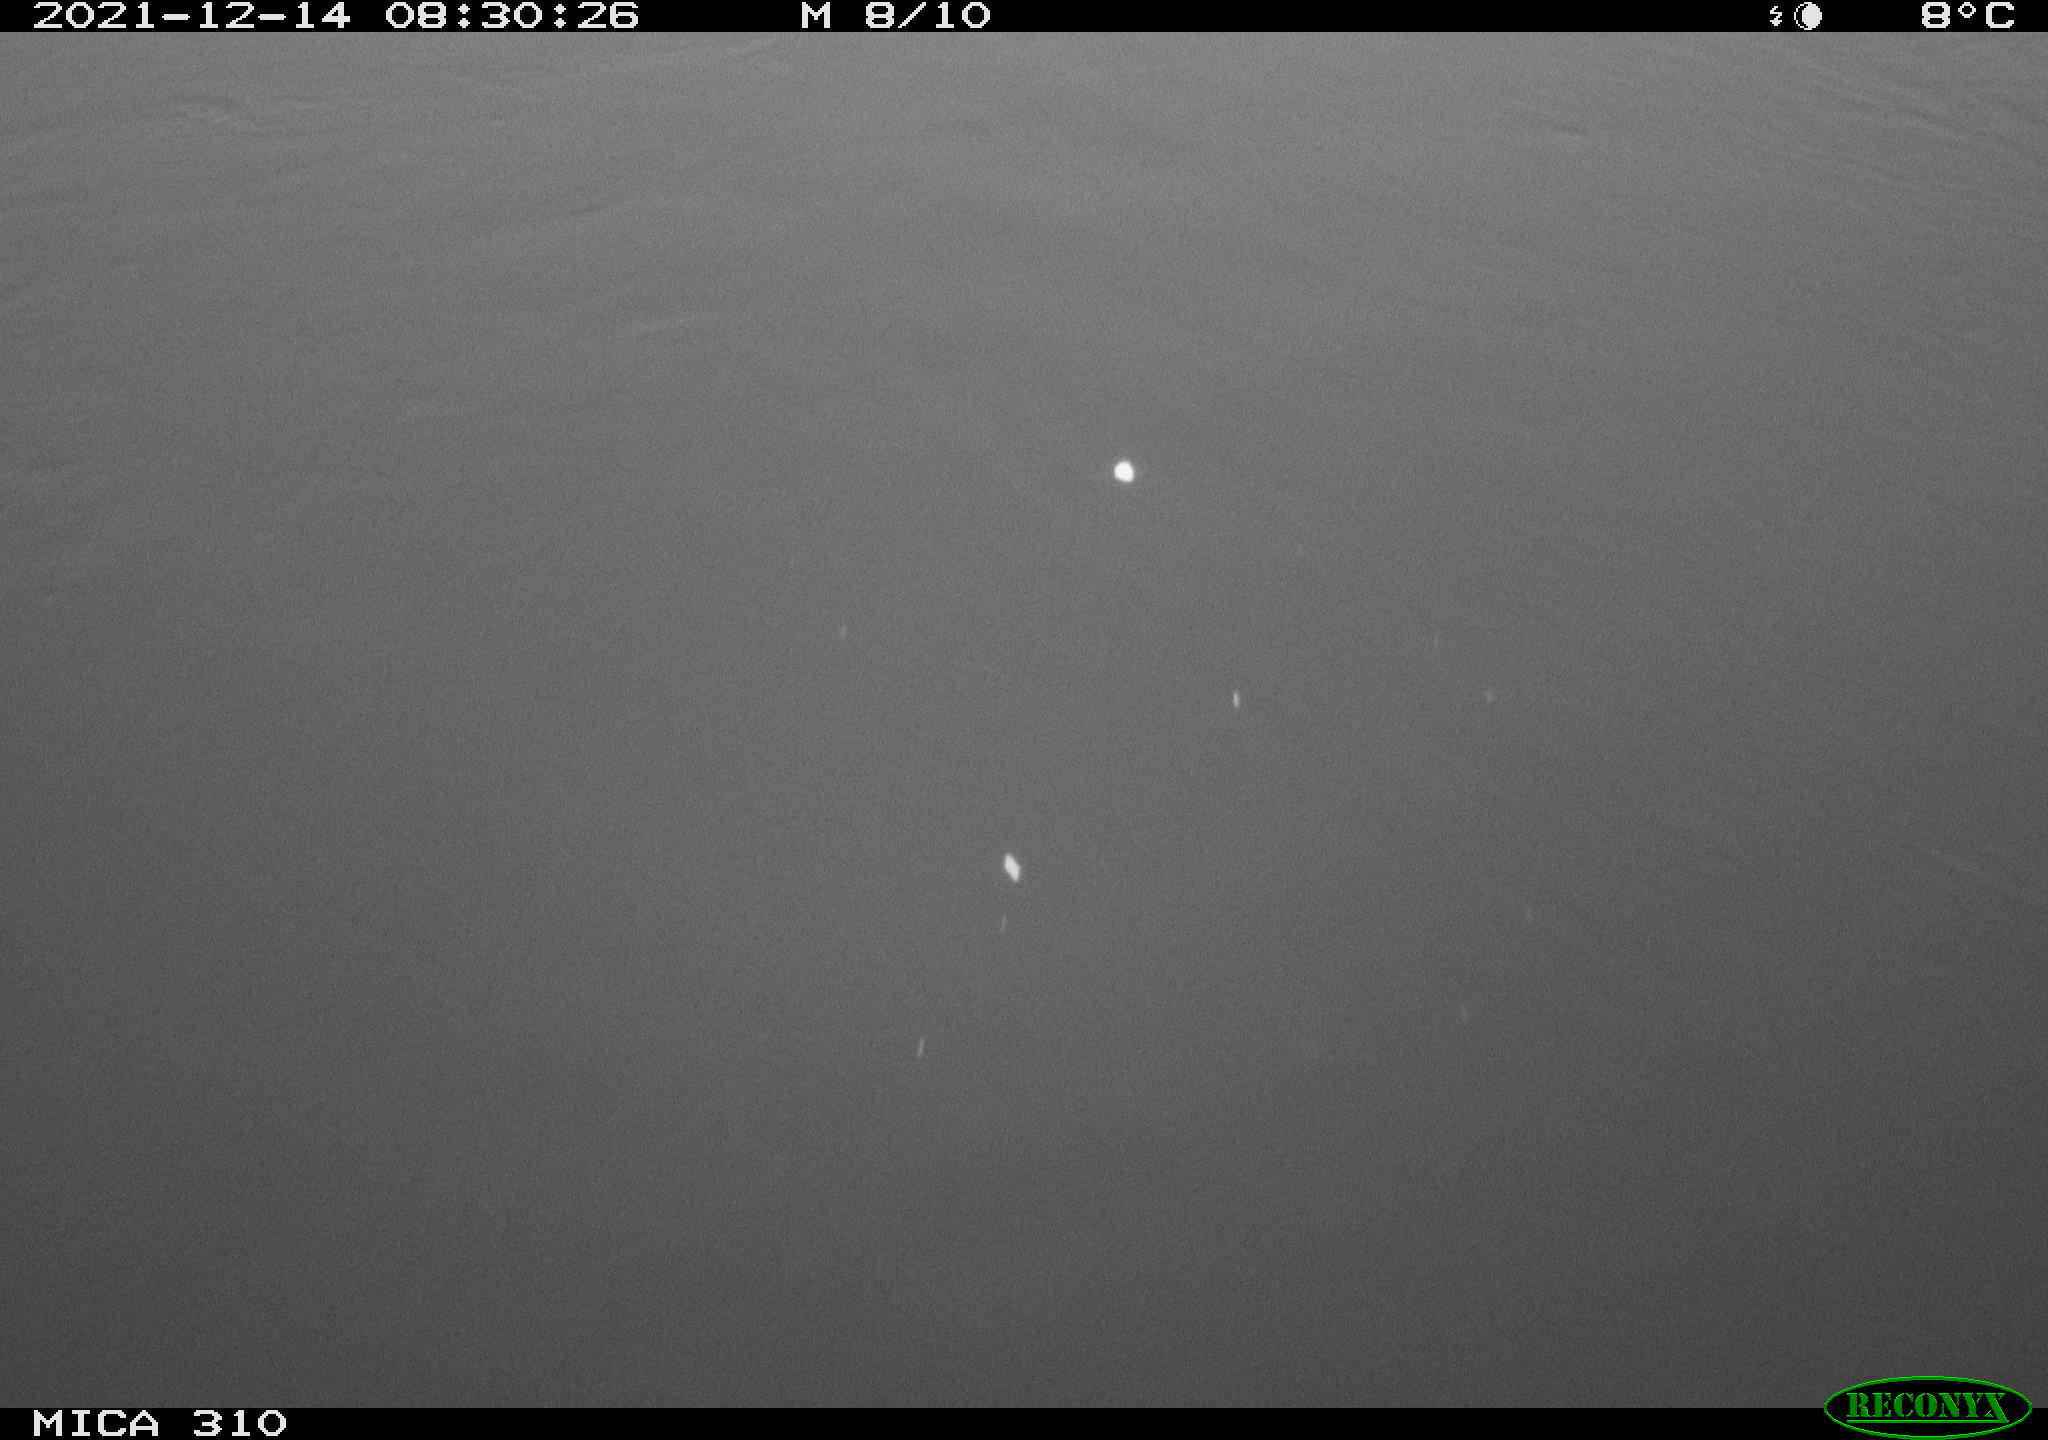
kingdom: Animalia
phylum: Chordata
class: Aves
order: Gruiformes
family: Rallidae
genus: Fulica
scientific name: Fulica atra
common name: Eurasian coot
